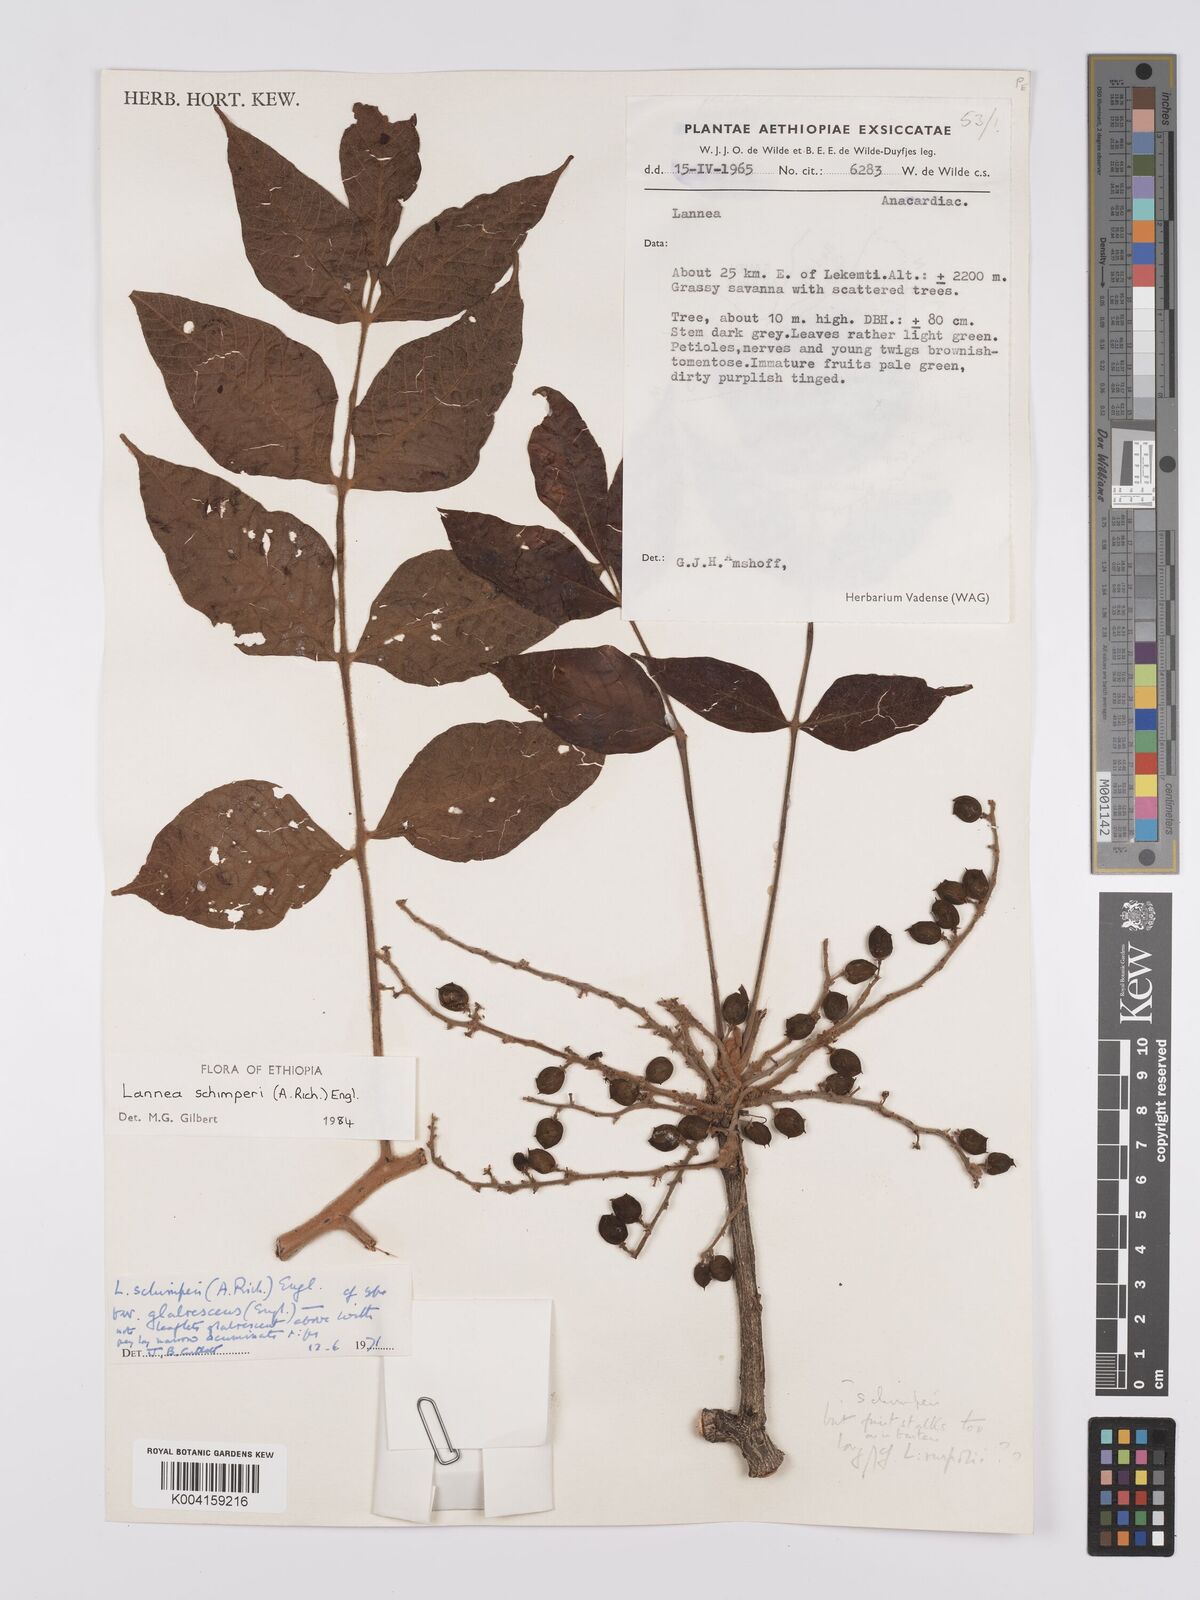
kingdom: Plantae
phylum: Tracheophyta
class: Magnoliopsida
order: Sapindales
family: Anacardiaceae
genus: Lannea
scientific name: Lannea schimperi
